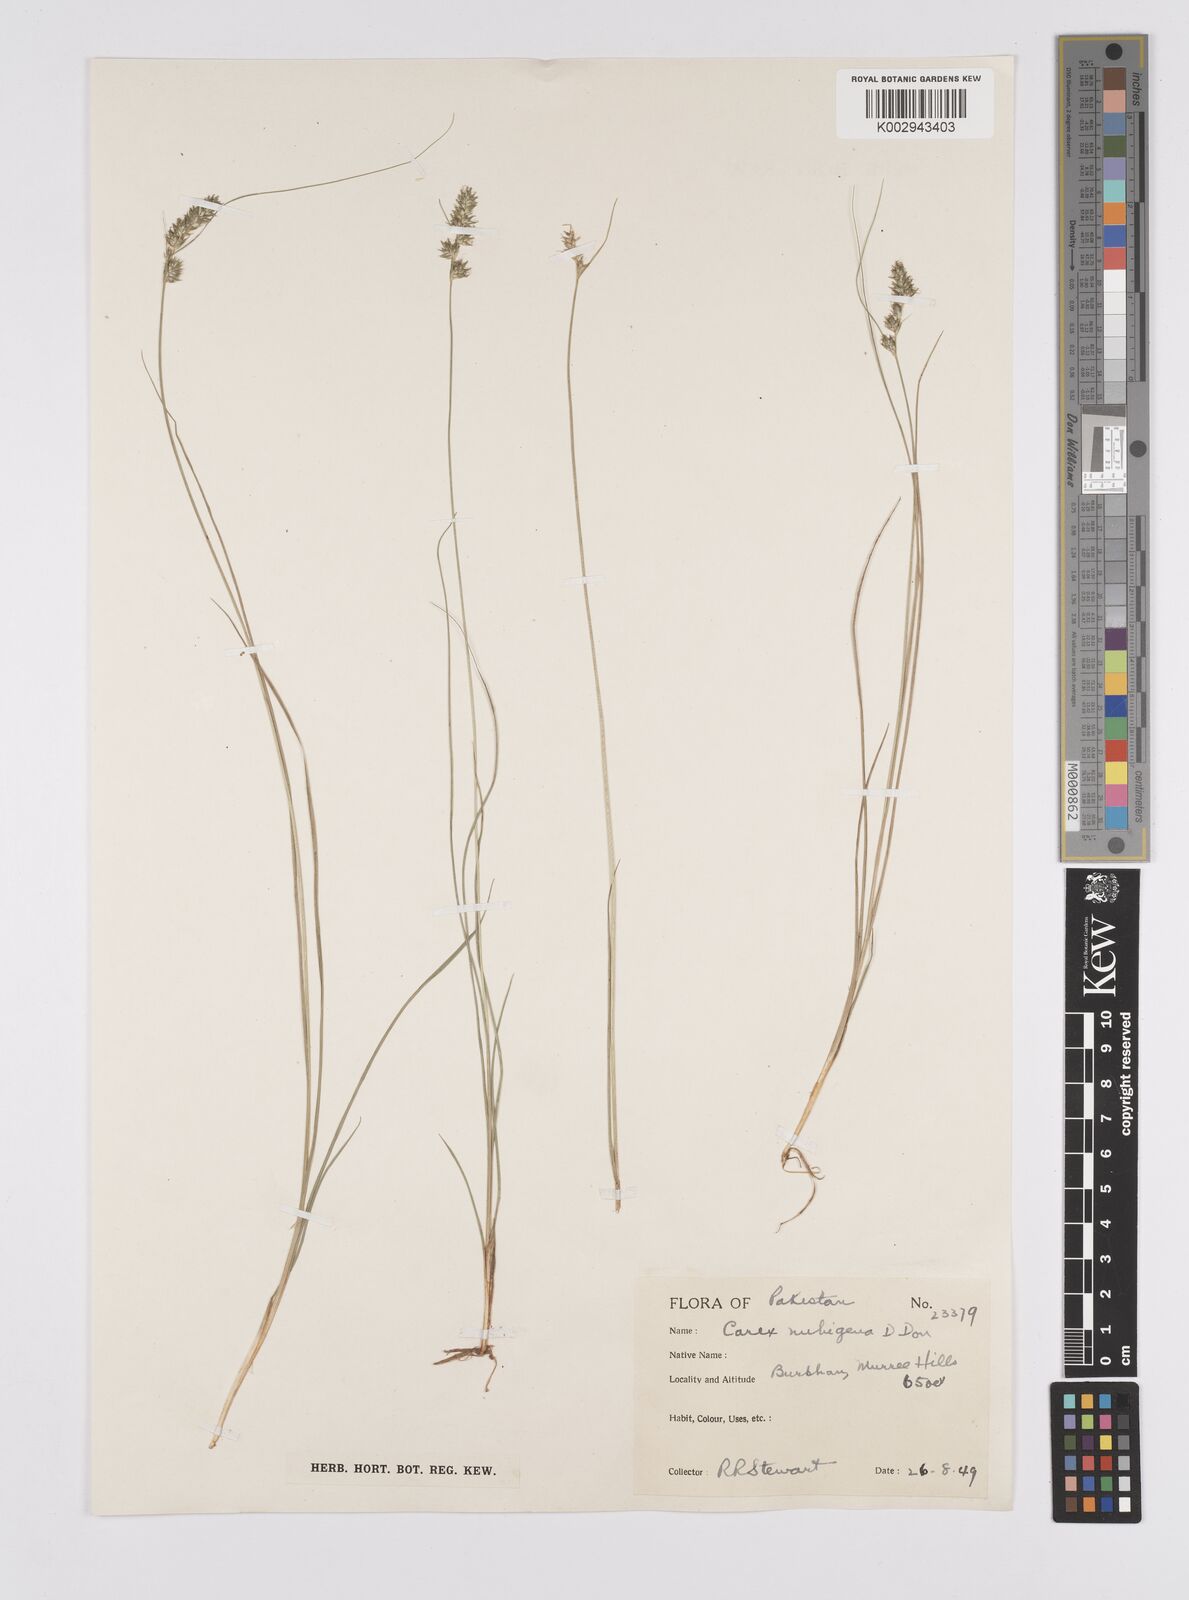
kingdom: Plantae
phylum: Tracheophyta
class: Liliopsida
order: Poales
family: Cyperaceae
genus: Carex
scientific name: Carex nubigena
